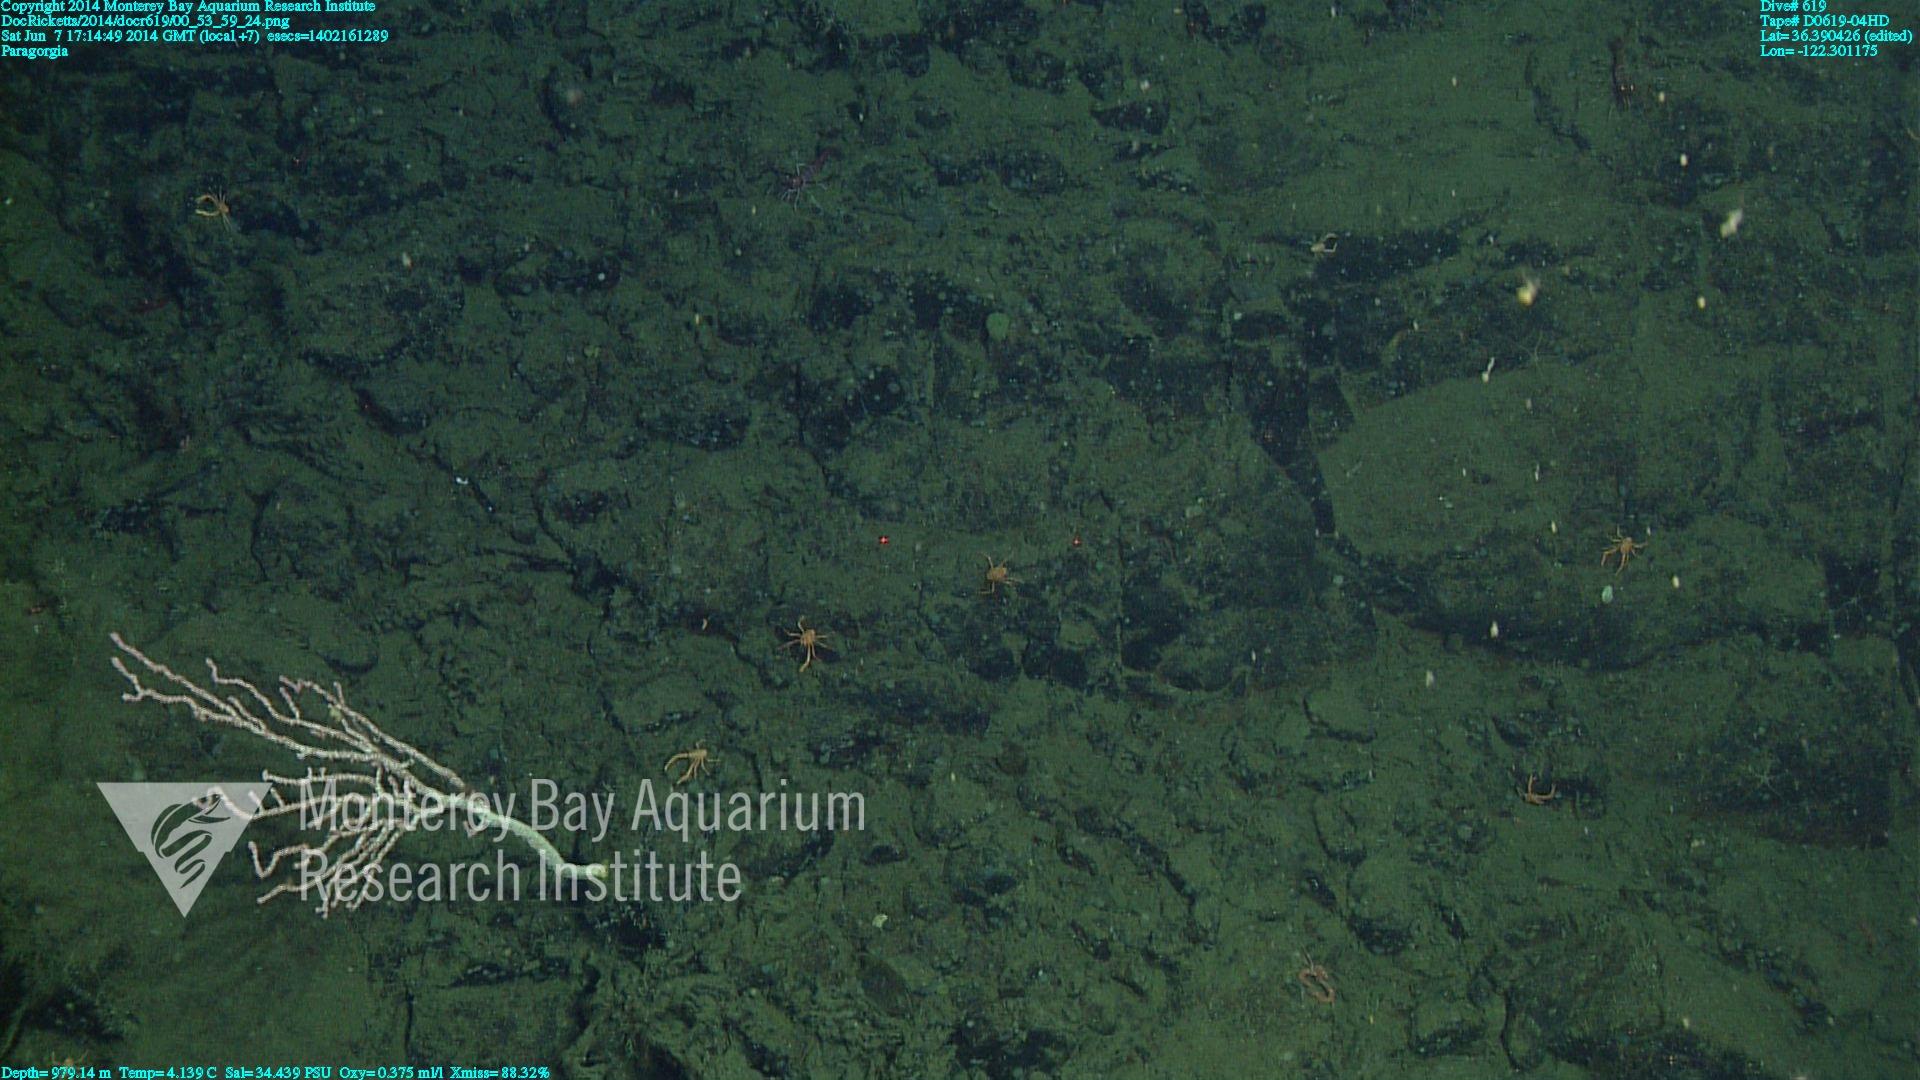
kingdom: Animalia
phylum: Cnidaria
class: Anthozoa
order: Scleralcyonacea
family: Coralliidae
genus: Paragorgia
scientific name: Paragorgia
